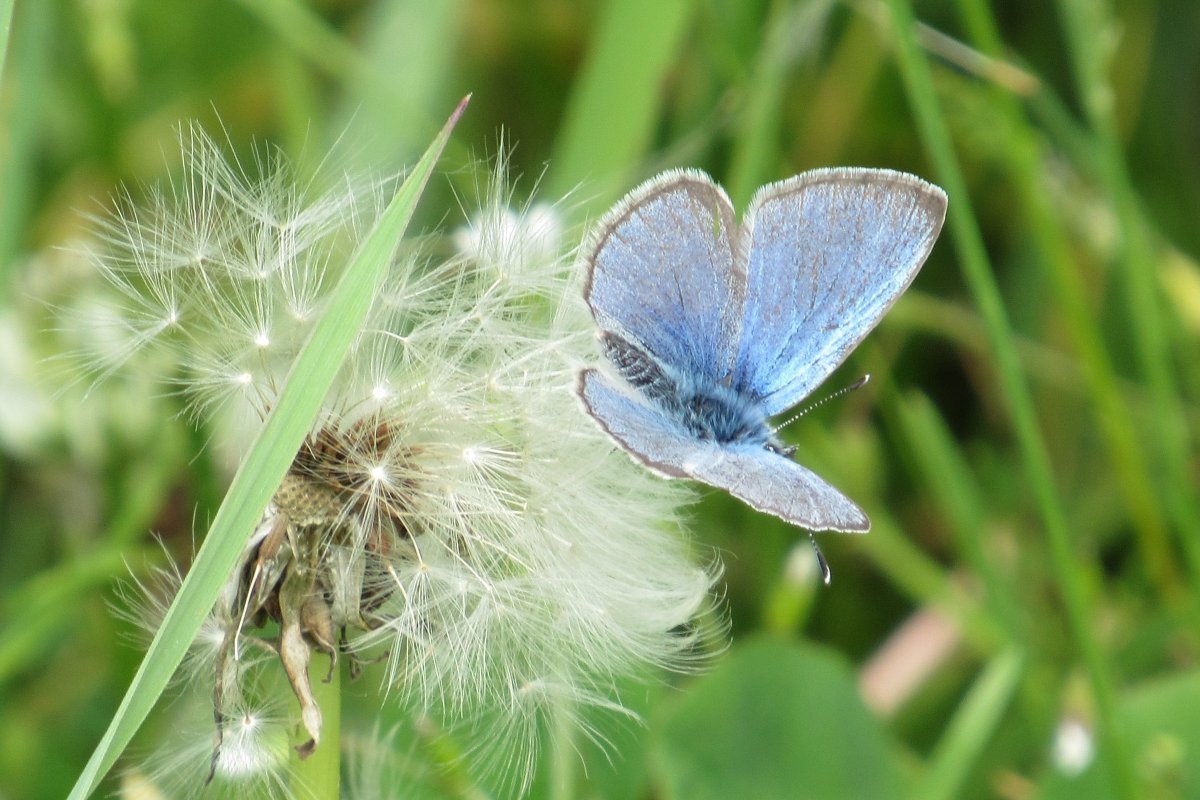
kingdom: Animalia
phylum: Arthropoda
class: Insecta
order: Lepidoptera
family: Lycaenidae
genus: Glaucopsyche
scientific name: Glaucopsyche lygdamus
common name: Silvery Blue
